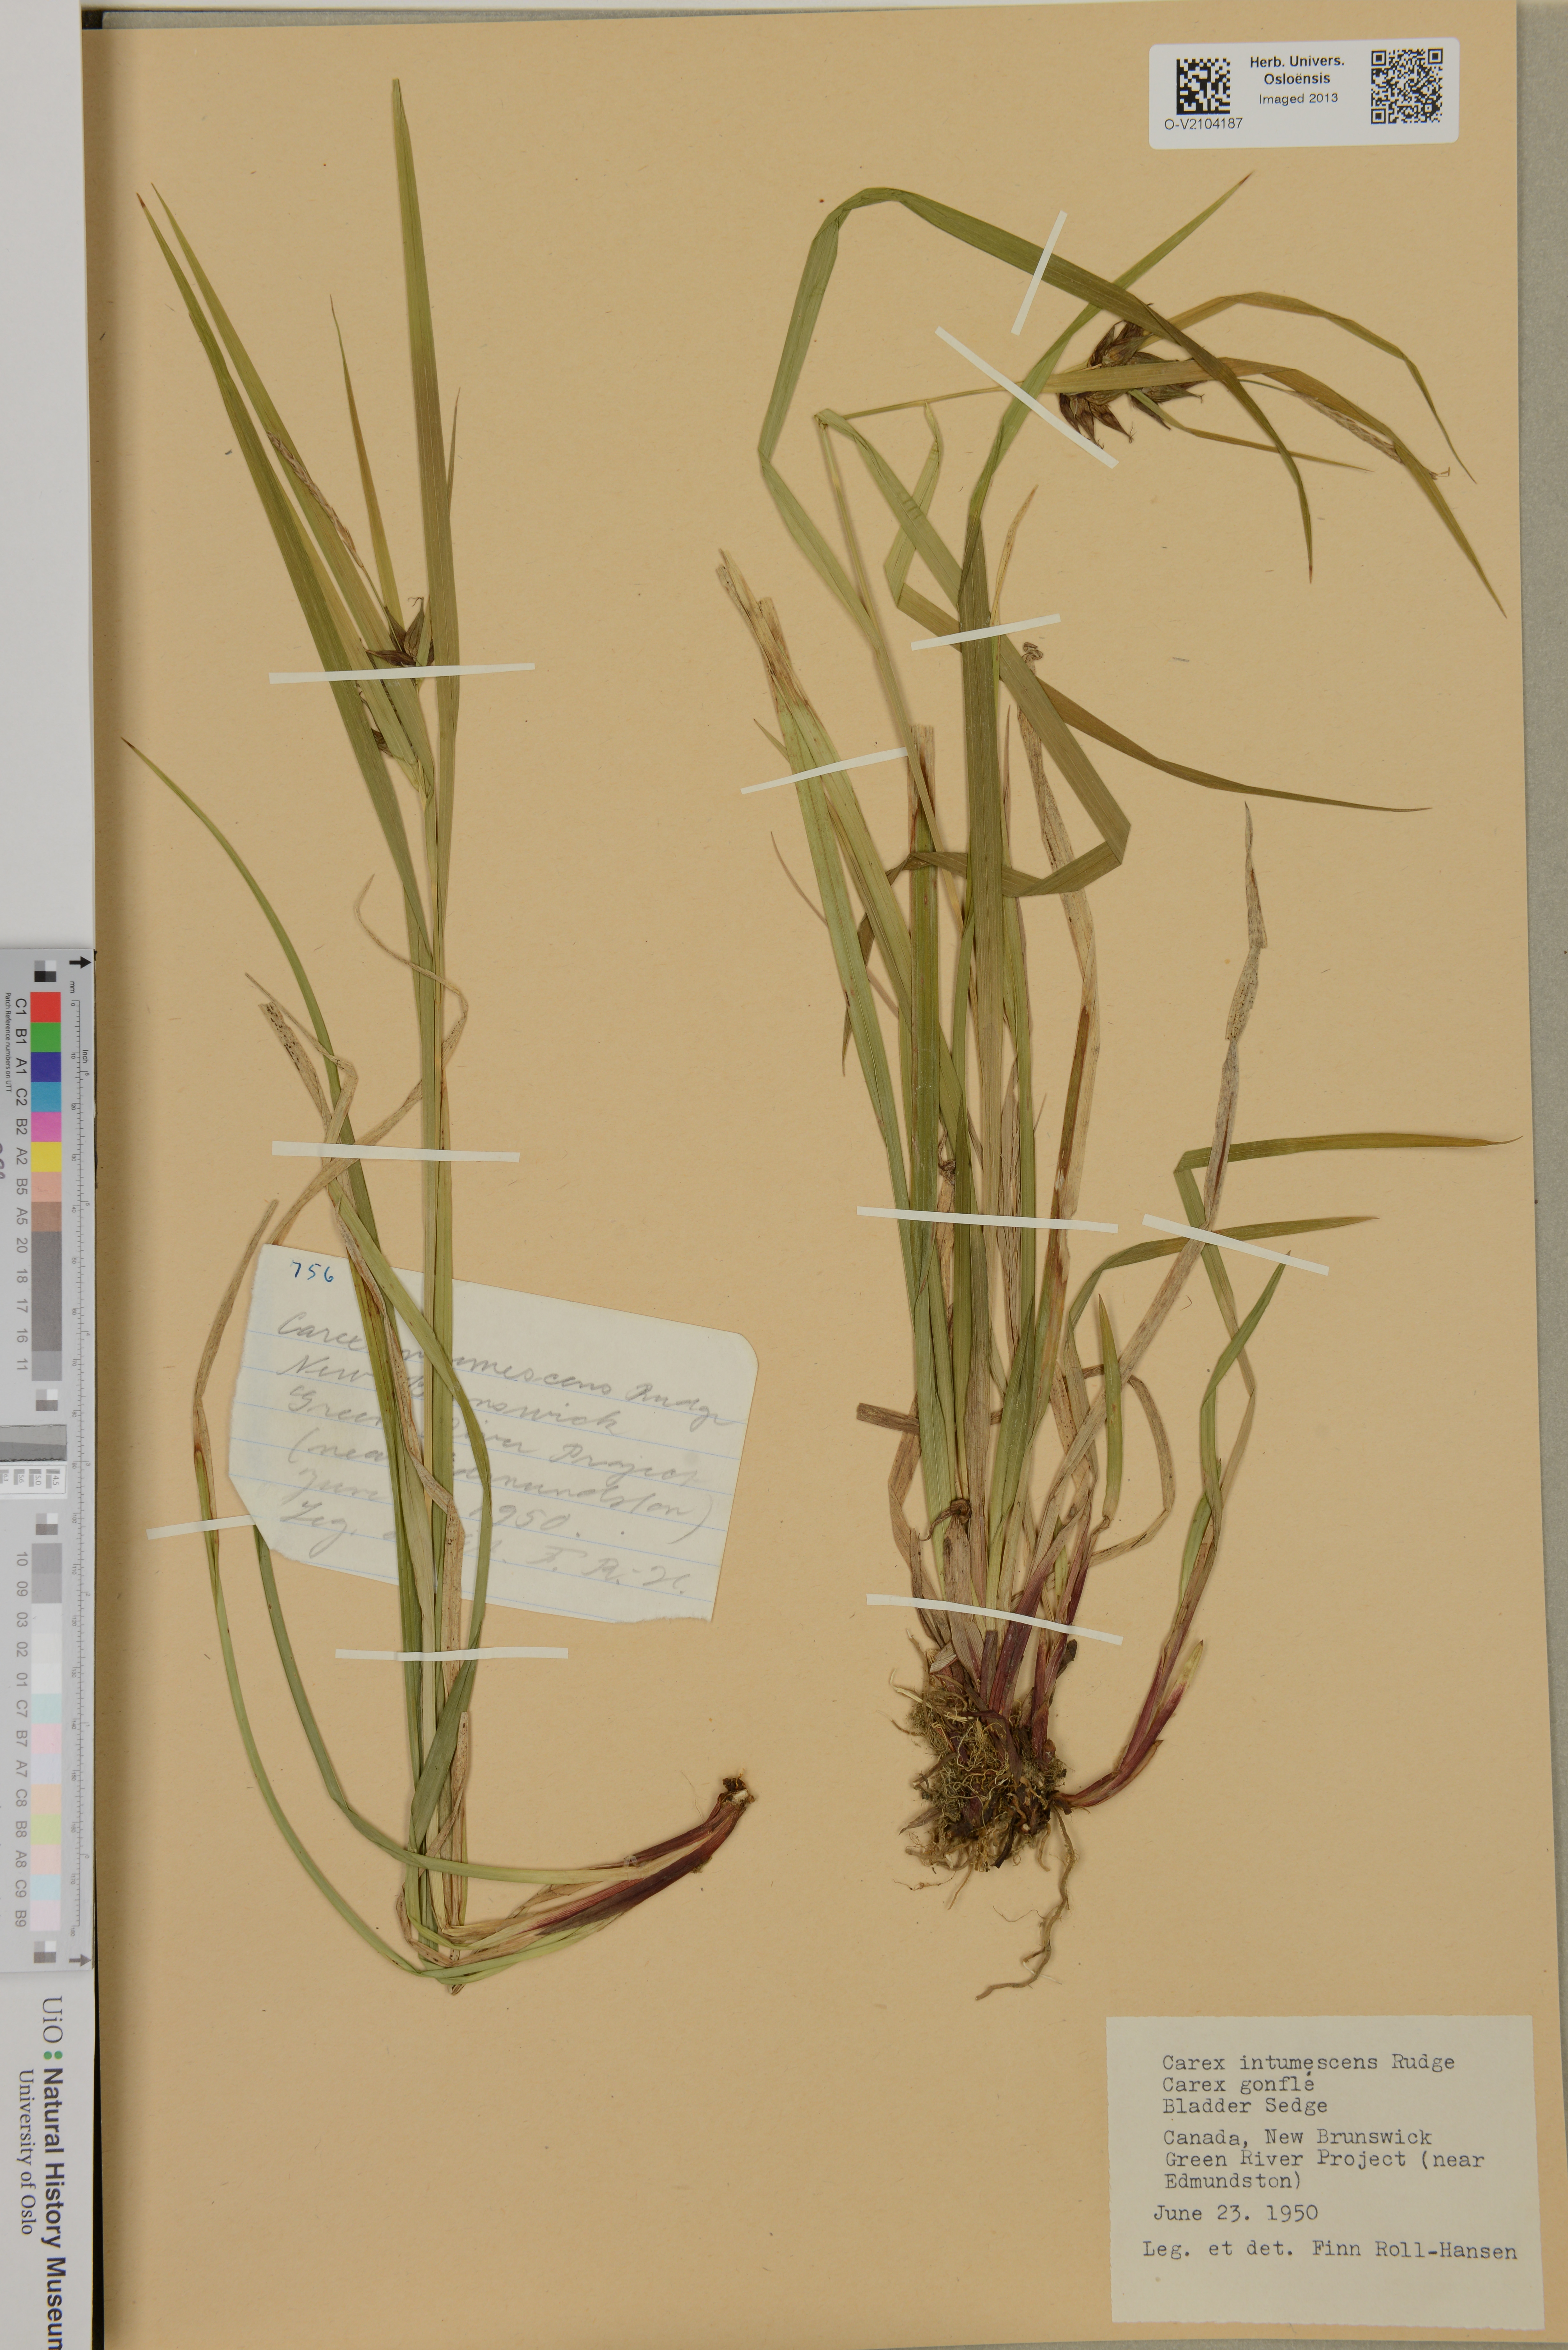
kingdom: Plantae
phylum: Tracheophyta
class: Liliopsida
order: Poales
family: Cyperaceae
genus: Carex
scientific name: Carex intumescens
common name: Greater bladder sedge
